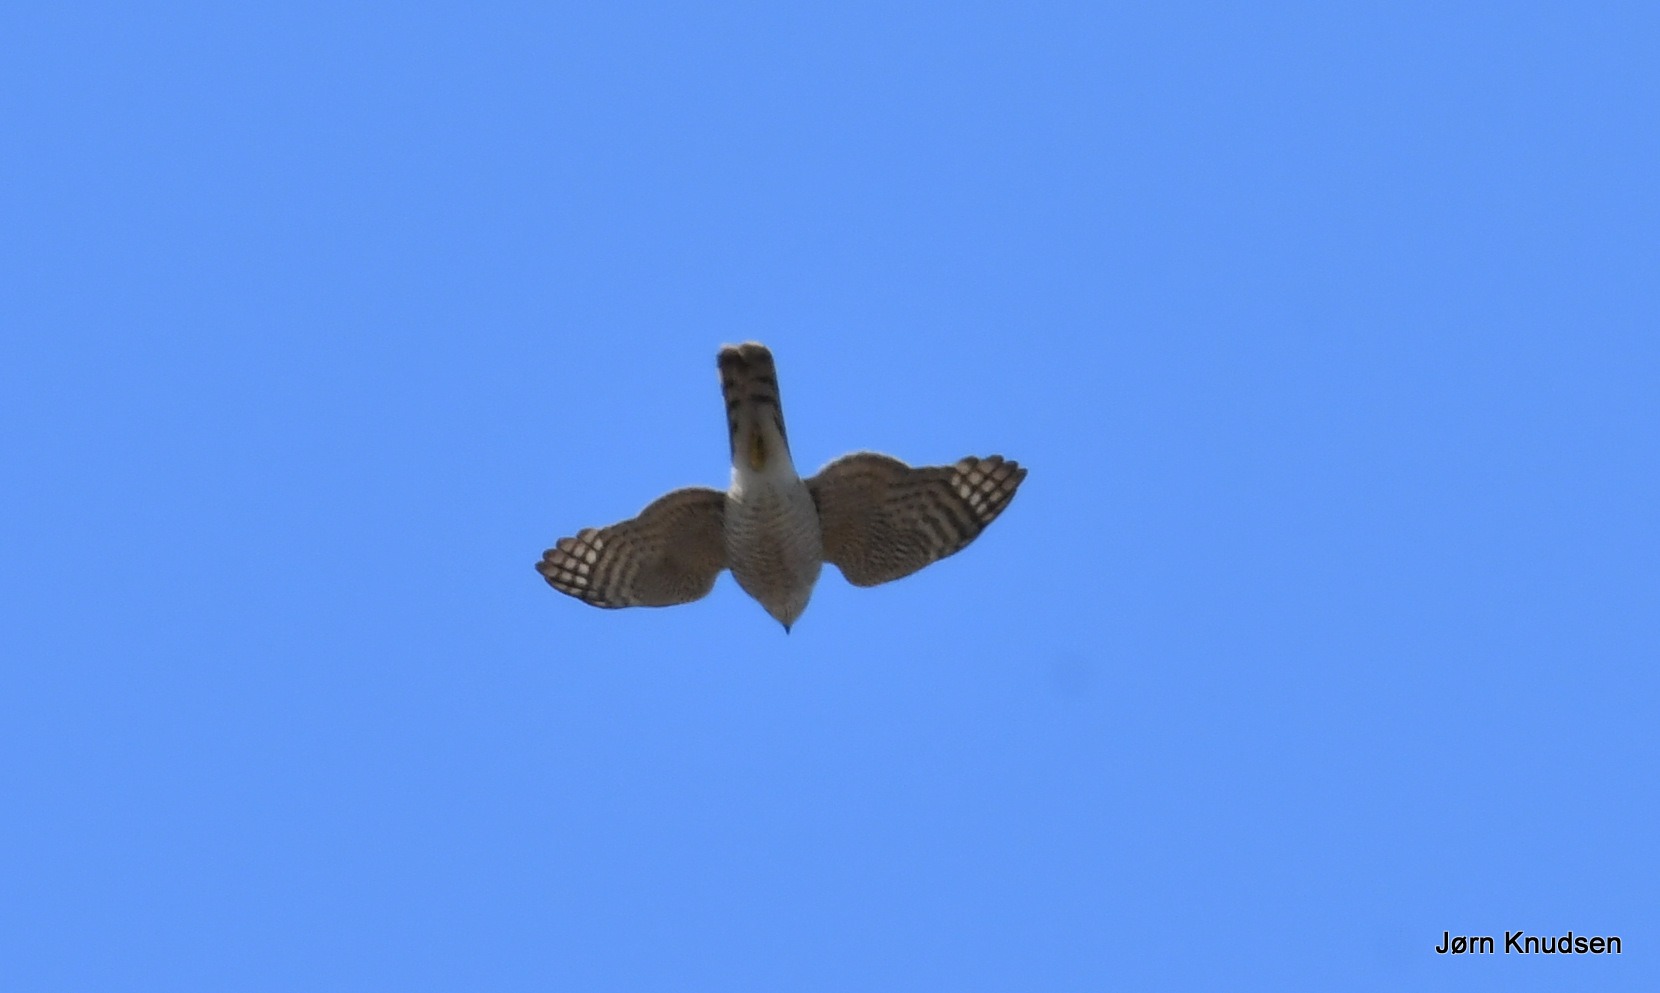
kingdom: Animalia
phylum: Chordata
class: Aves
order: Accipitriformes
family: Accipitridae
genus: Accipiter
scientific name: Accipiter nisus
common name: Spurvehøg
